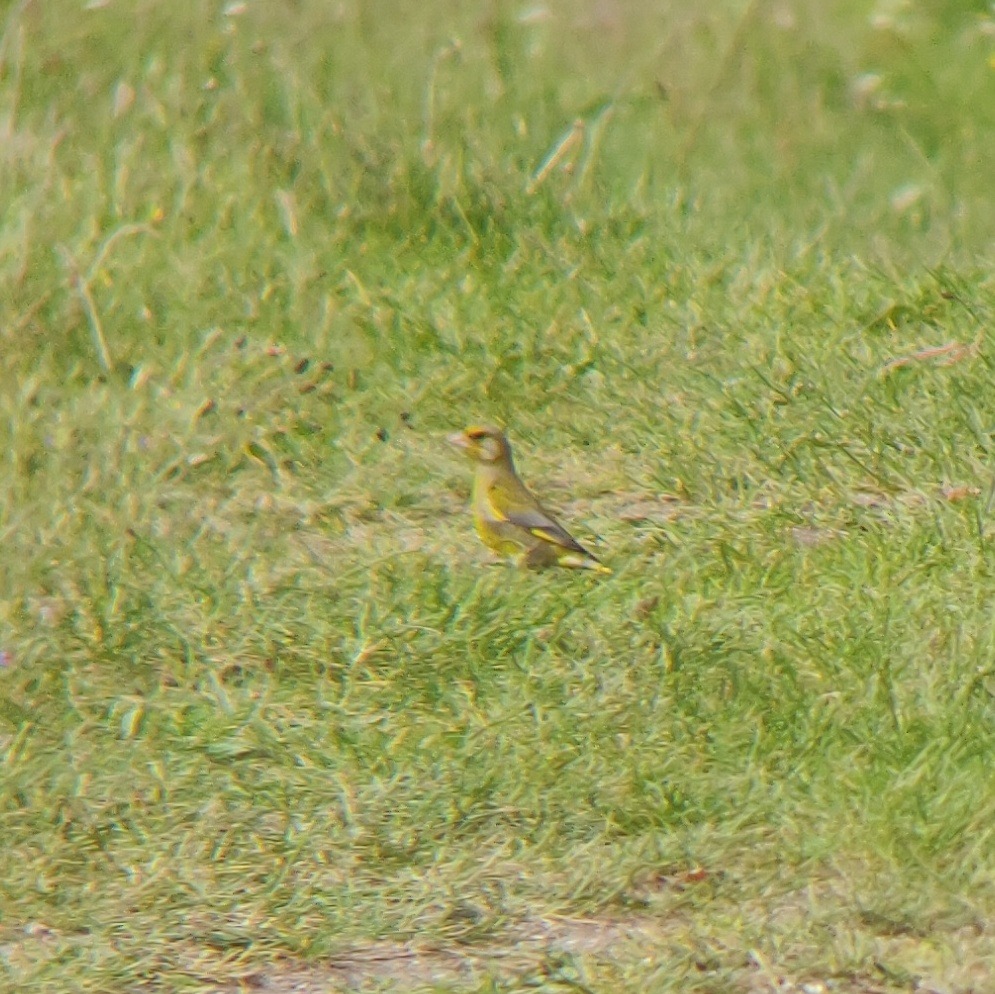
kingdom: Plantae
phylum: Tracheophyta
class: Liliopsida
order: Poales
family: Poaceae
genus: Chloris
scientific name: Chloris chloris
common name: Grønirisk
